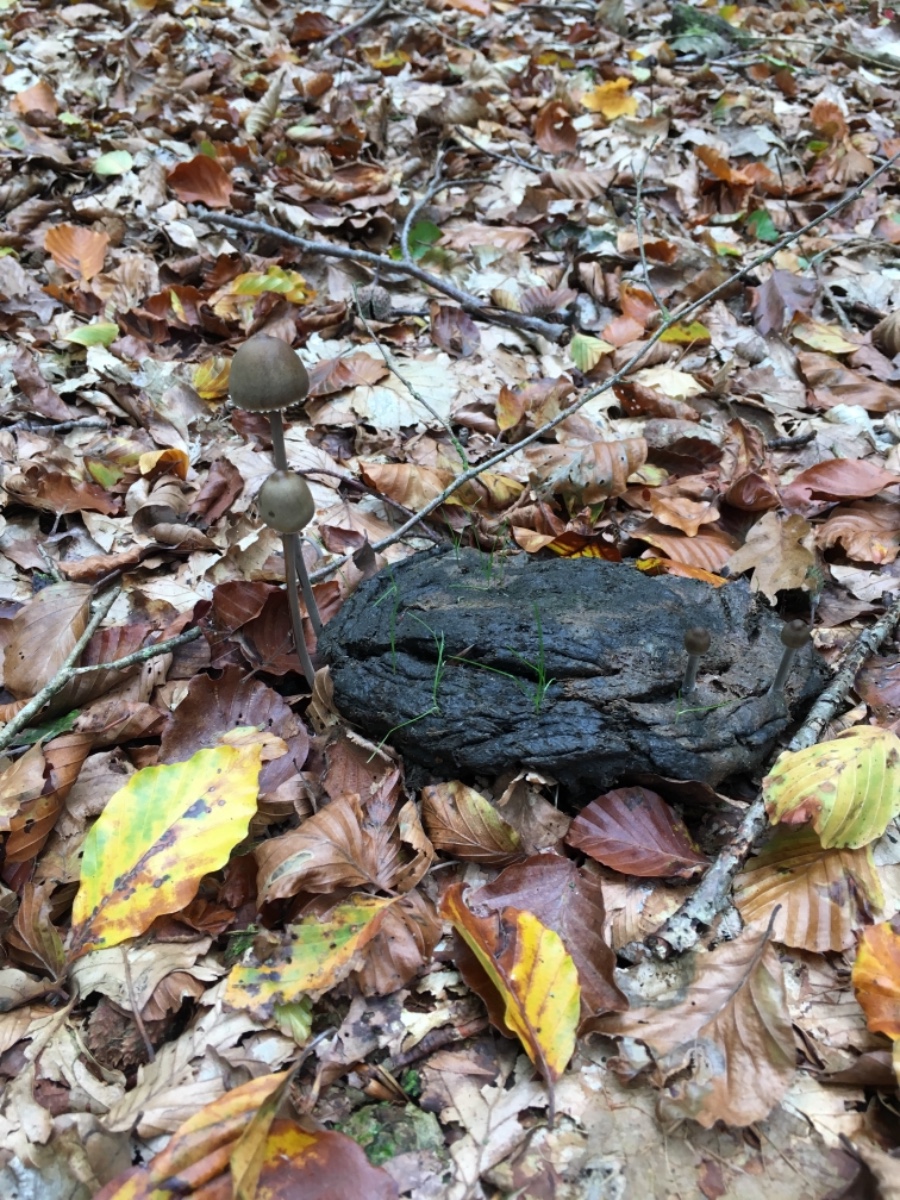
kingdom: Fungi
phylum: Basidiomycota
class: Agaricomycetes
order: Agaricales
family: Bolbitiaceae
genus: Panaeolus
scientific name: Panaeolus papilionaceus
